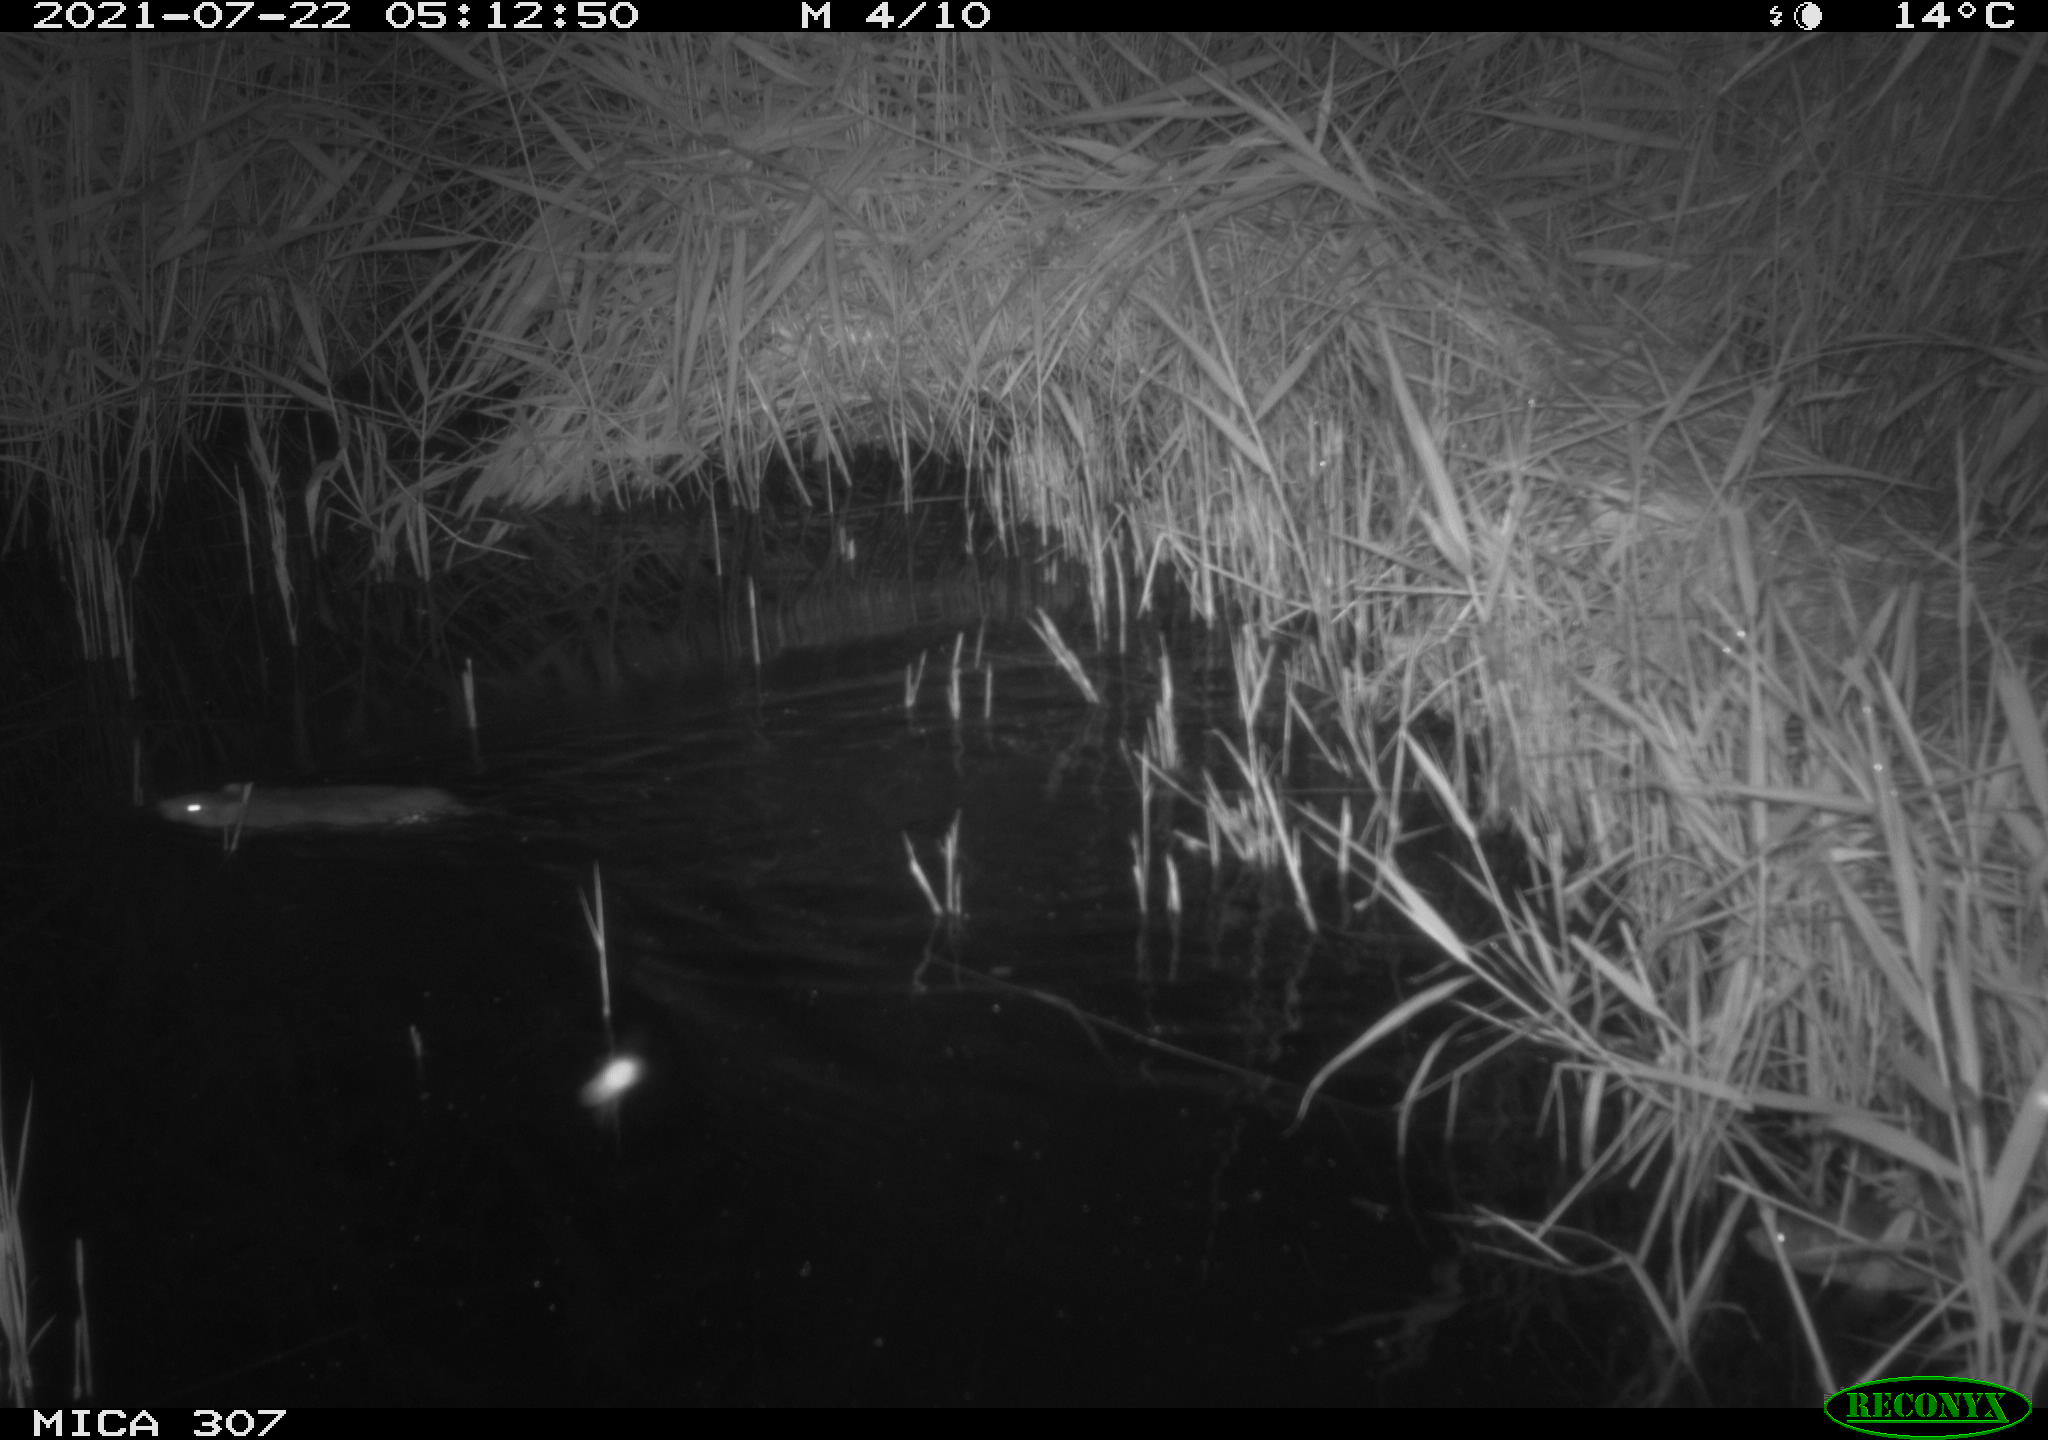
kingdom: Animalia
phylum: Chordata
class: Mammalia
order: Rodentia
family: Muridae
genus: Rattus
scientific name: Rattus norvegicus
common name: Brown rat
